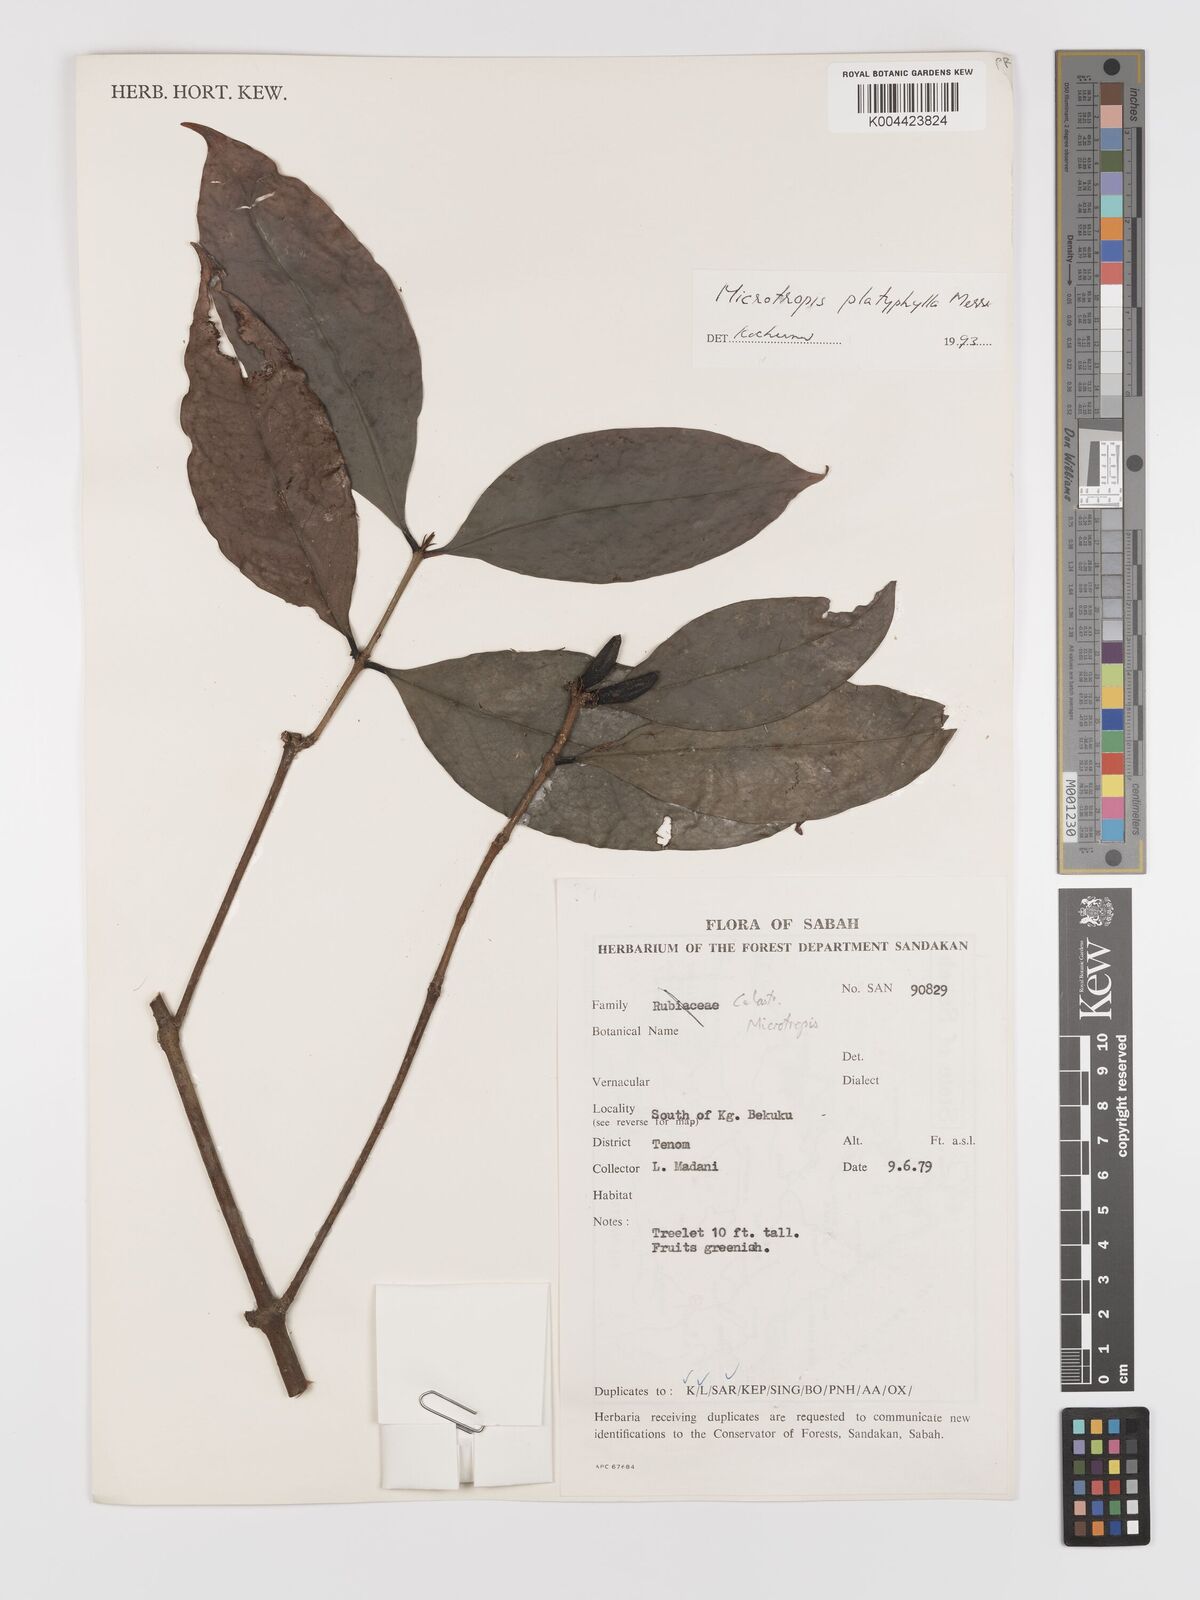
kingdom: Plantae
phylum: Tracheophyta
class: Magnoliopsida
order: Celastrales
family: Celastraceae
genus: Microtropis
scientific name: Microtropis platyphylla
